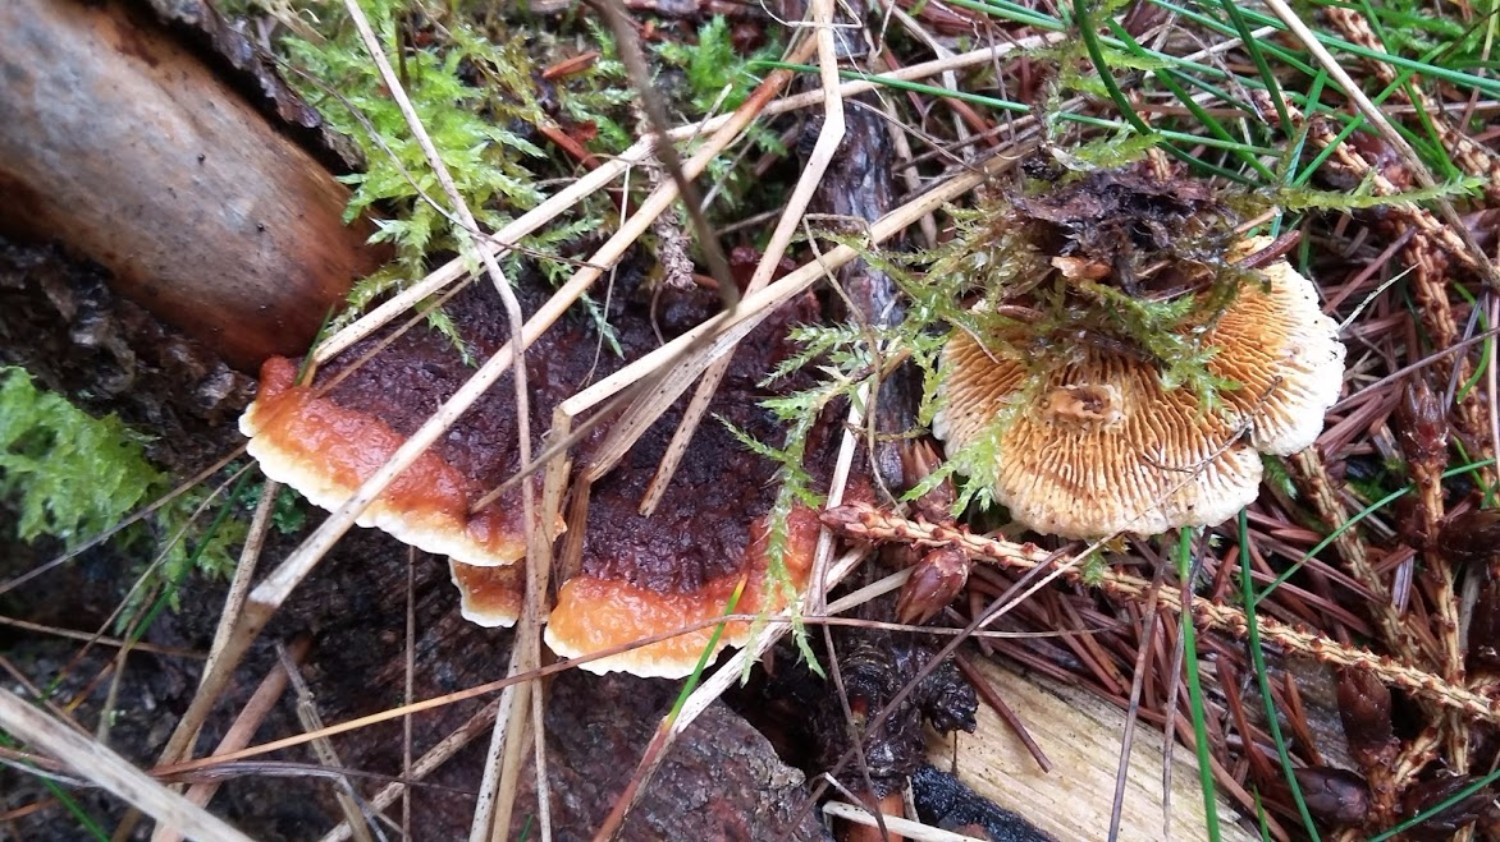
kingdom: Fungi
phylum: Basidiomycota
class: Agaricomycetes
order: Gloeophyllales
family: Gloeophyllaceae
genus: Gloeophyllum
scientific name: Gloeophyllum sepiarium
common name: fyrre-korkhat
